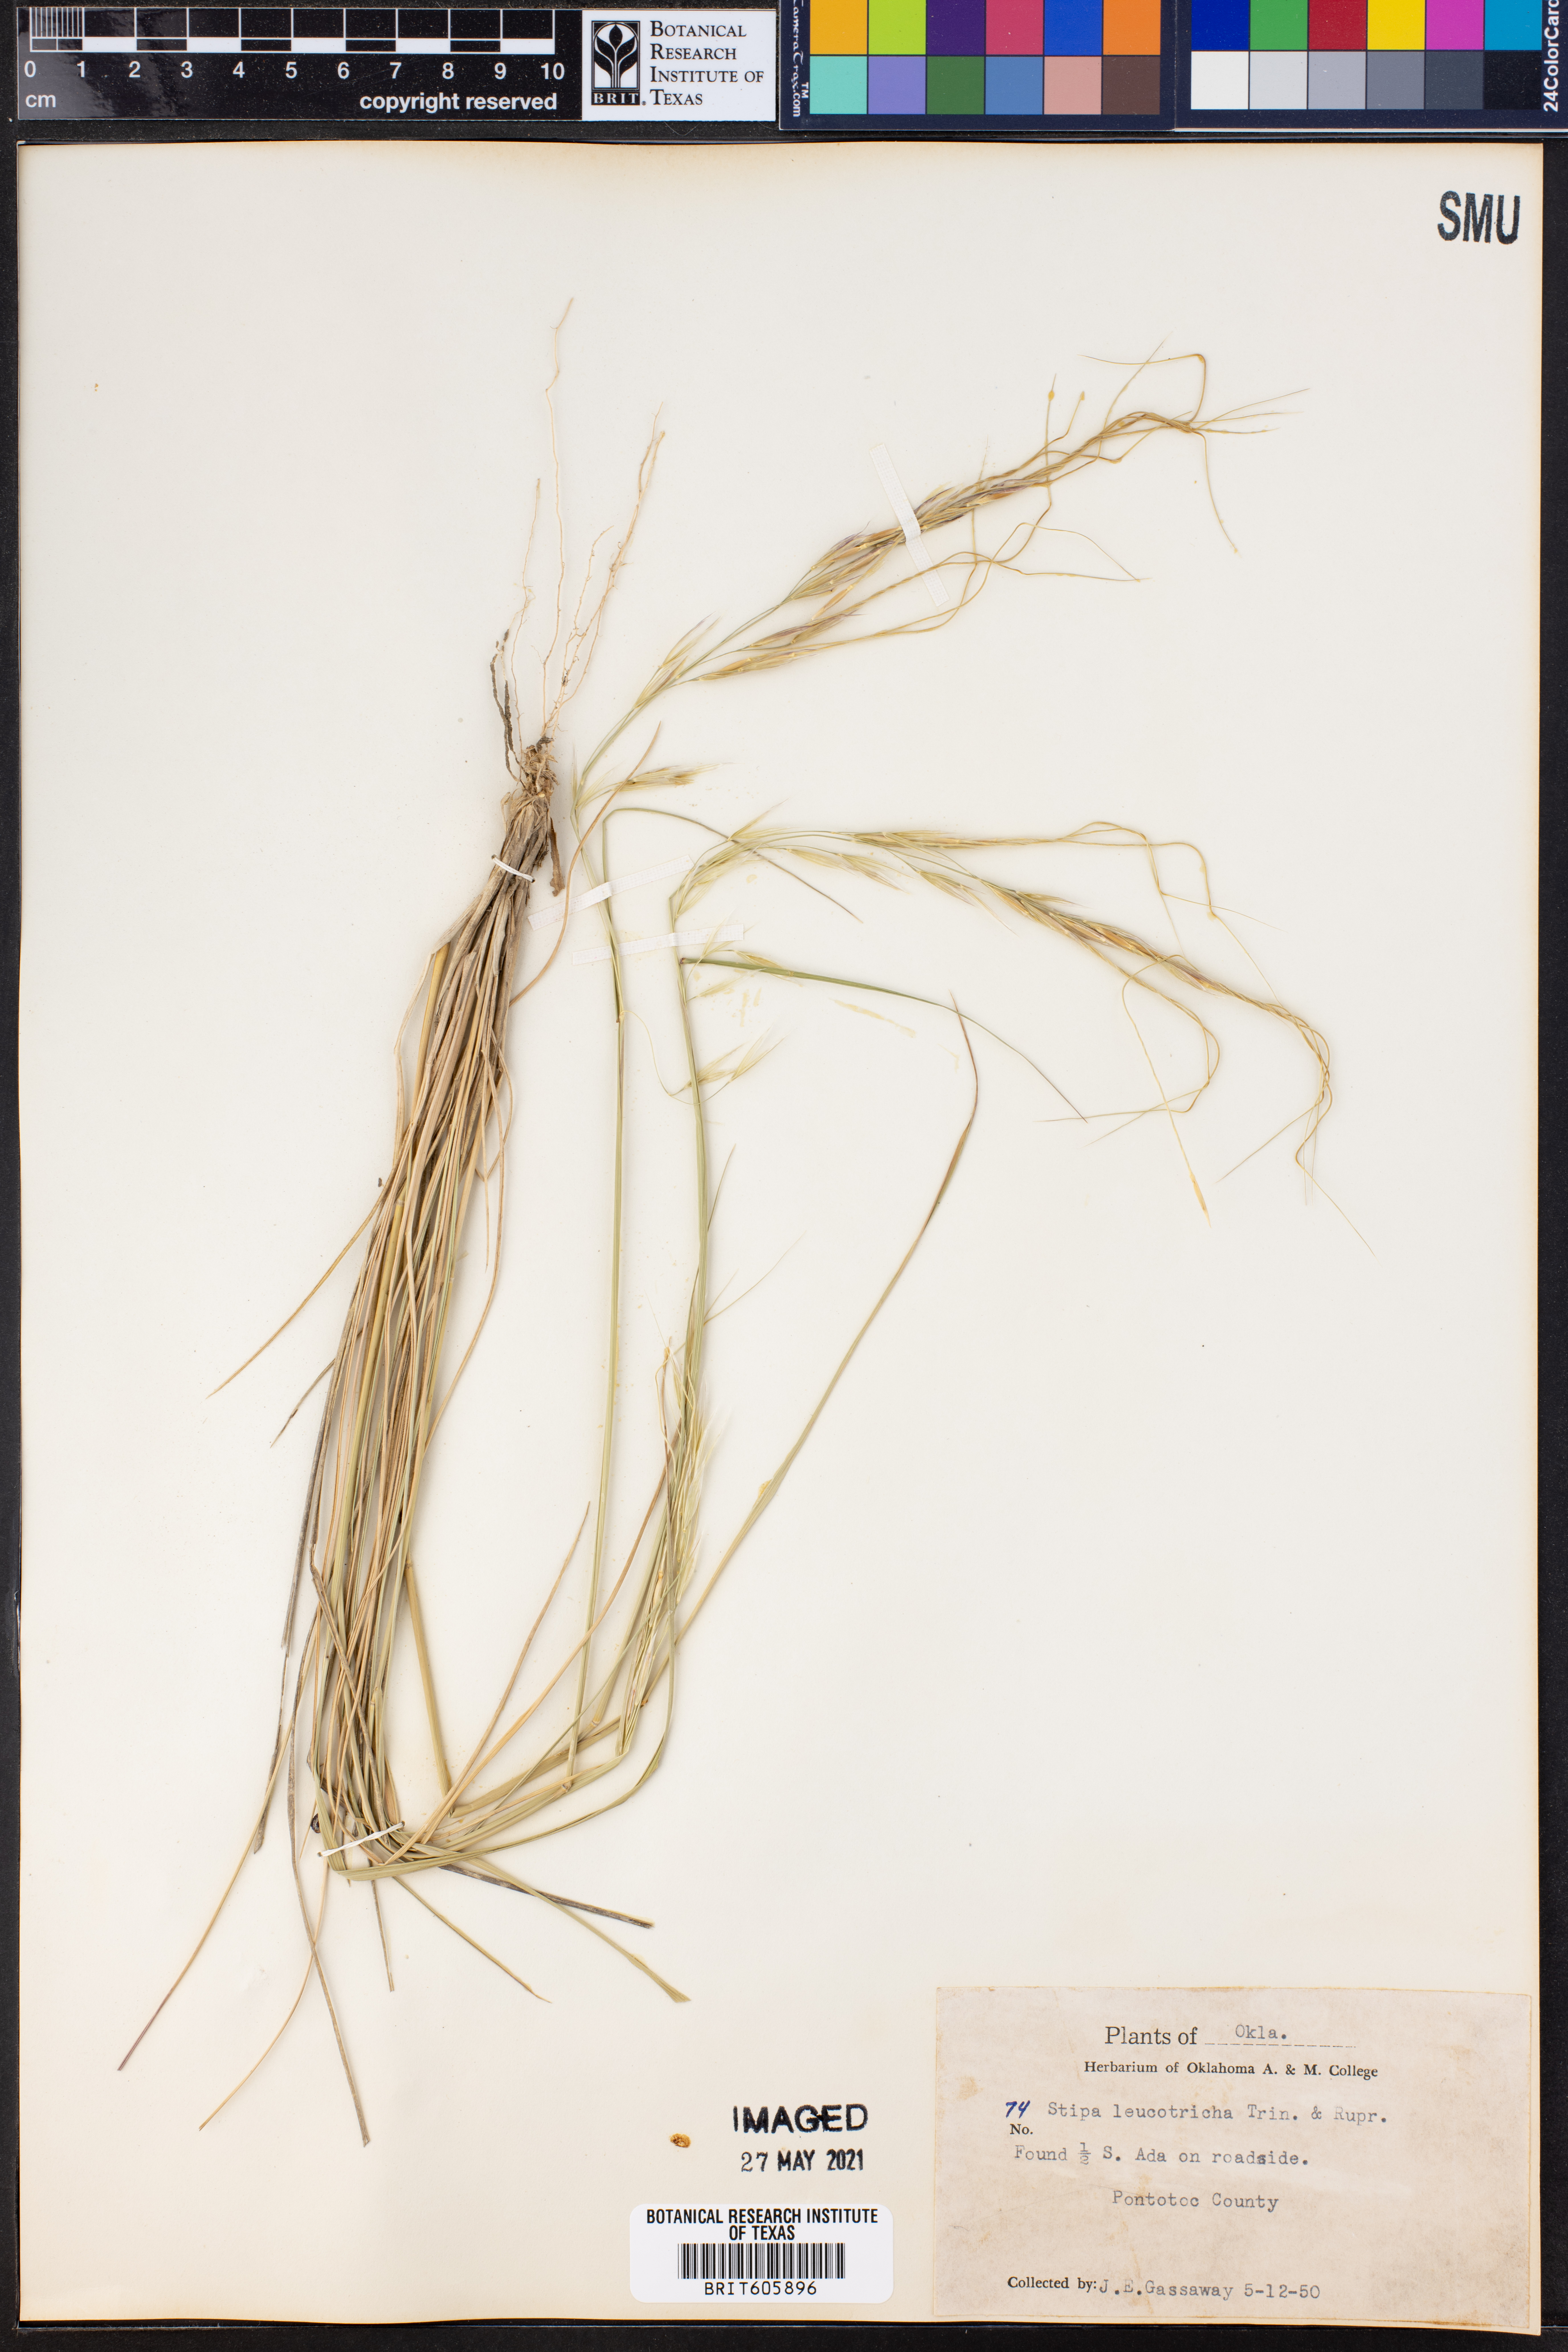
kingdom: Plantae
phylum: Tracheophyta
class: Liliopsida
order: Poales
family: Poaceae
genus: Nassella
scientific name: Nassella leucotricha
